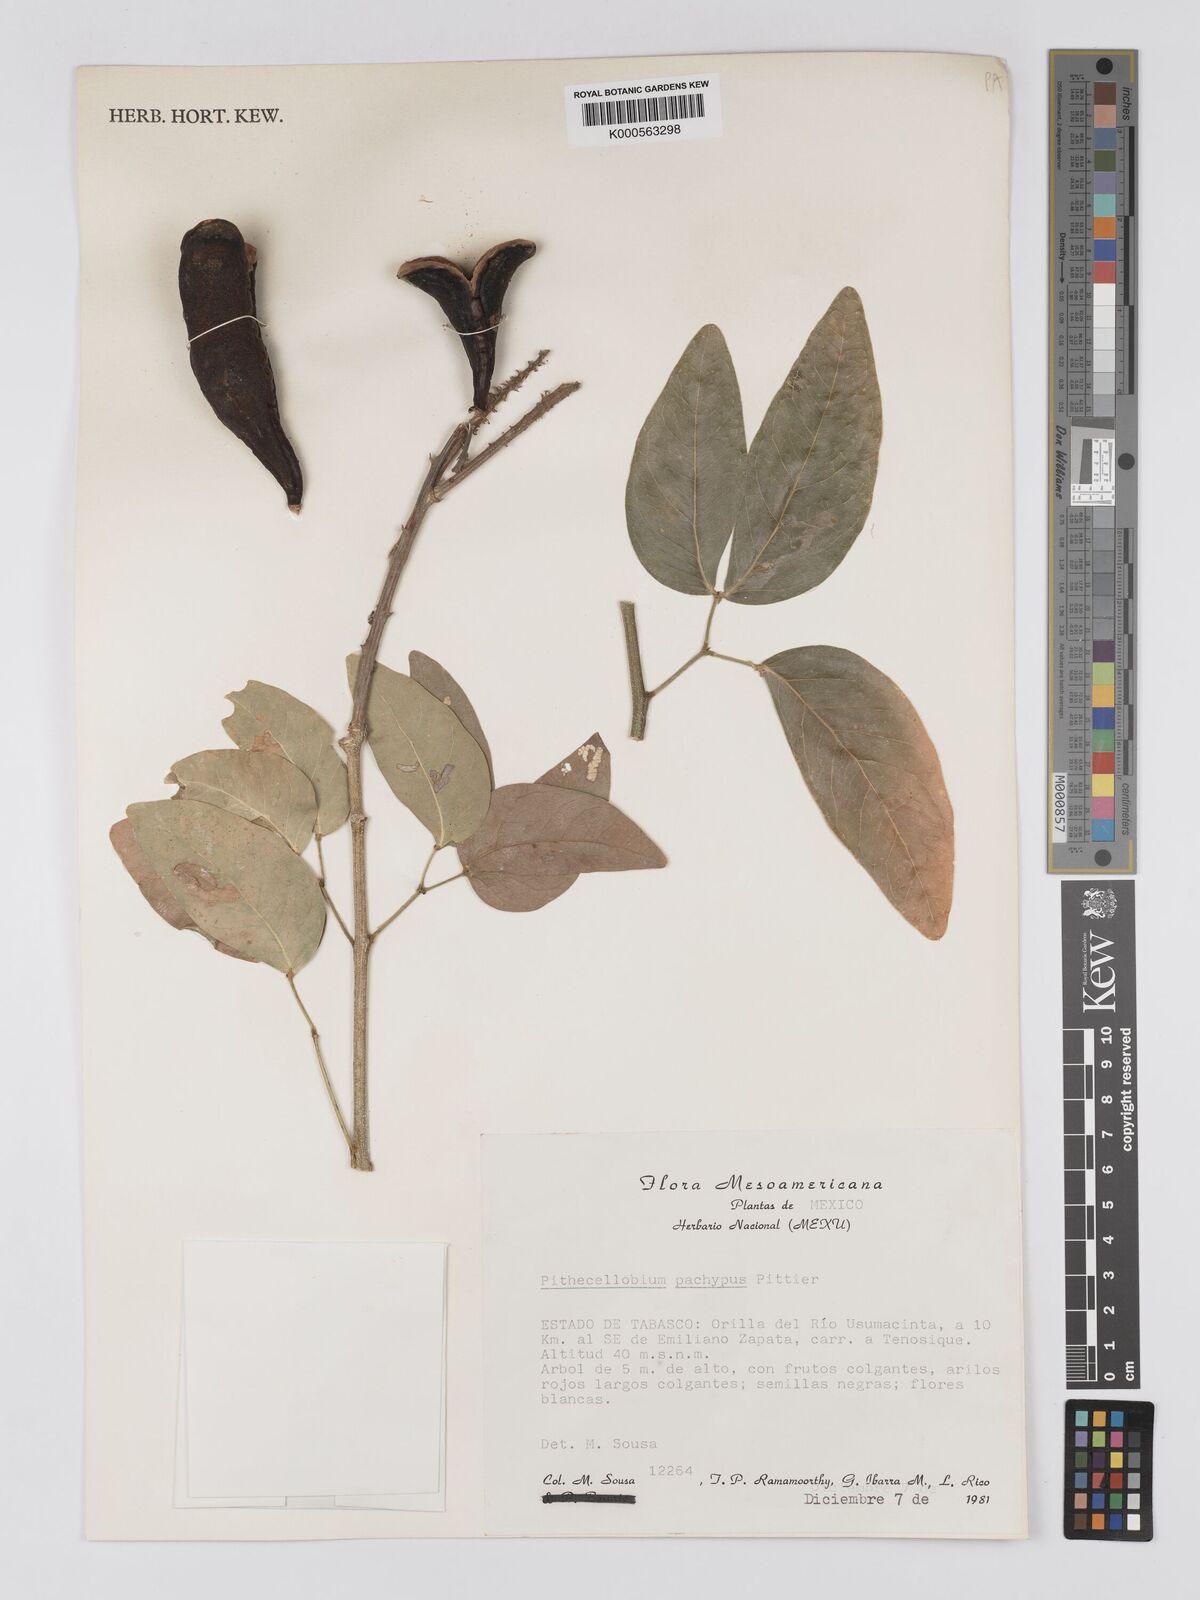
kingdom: Plantae
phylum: Tracheophyta
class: Magnoliopsida
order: Fabales
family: Fabaceae
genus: Pithecellobium
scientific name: Pithecellobium lanceolatum
